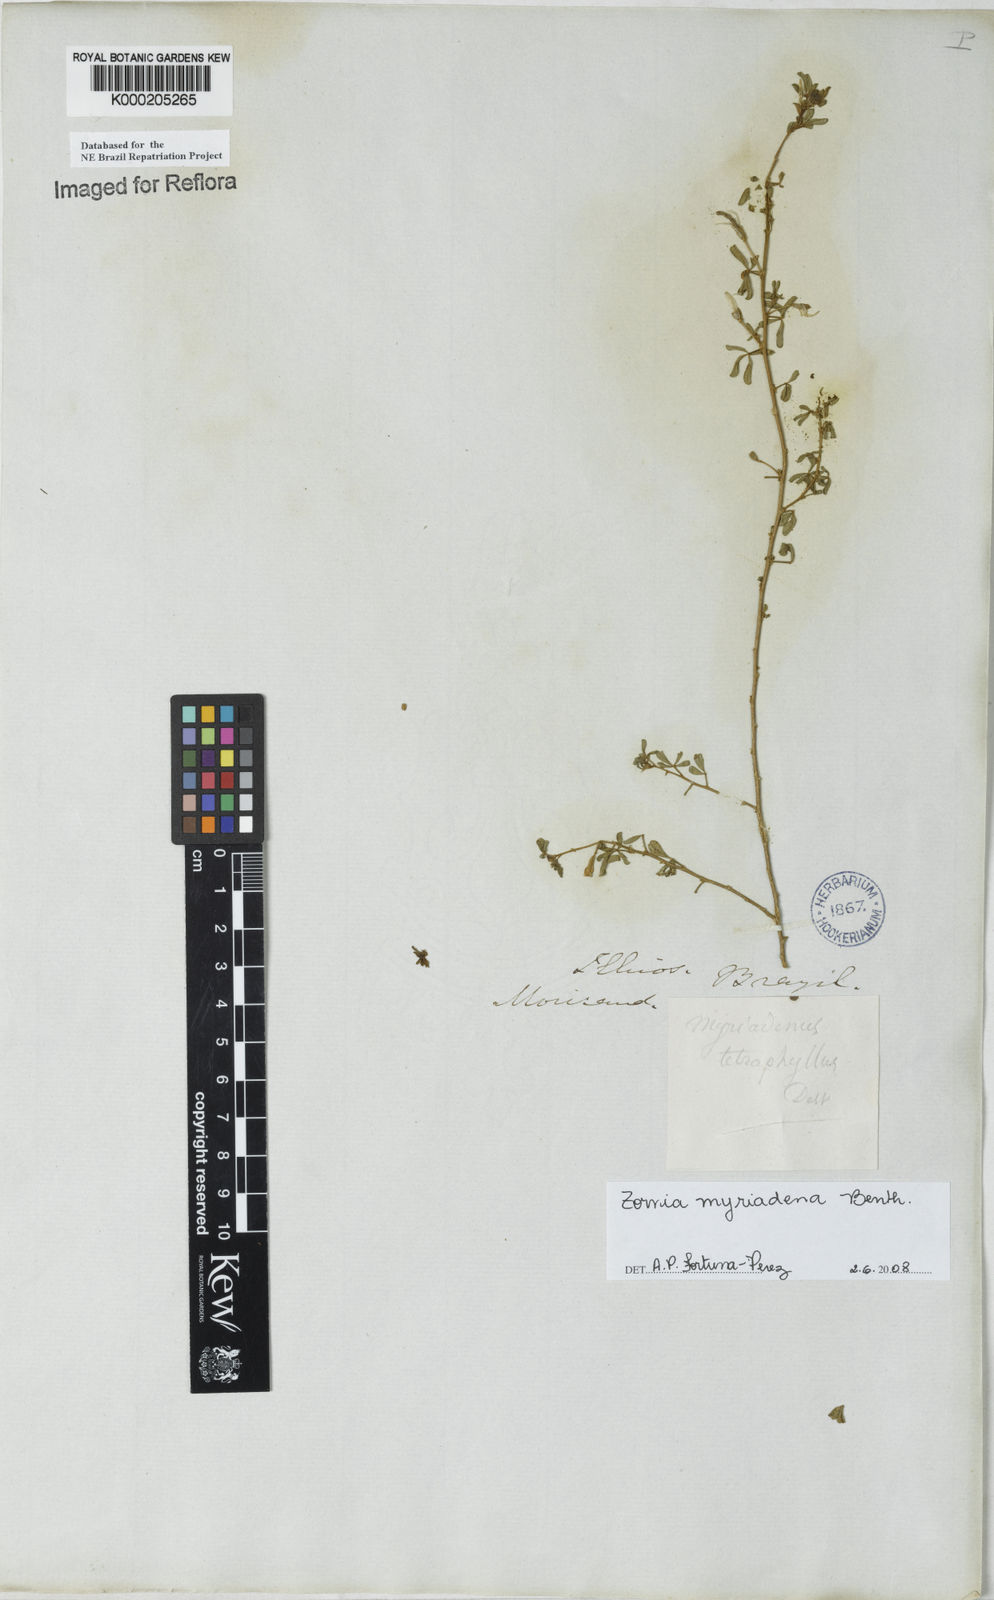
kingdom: Plantae
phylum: Tracheophyta
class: Magnoliopsida
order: Fabales
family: Fabaceae
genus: Zornia
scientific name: Zornia myriadena
